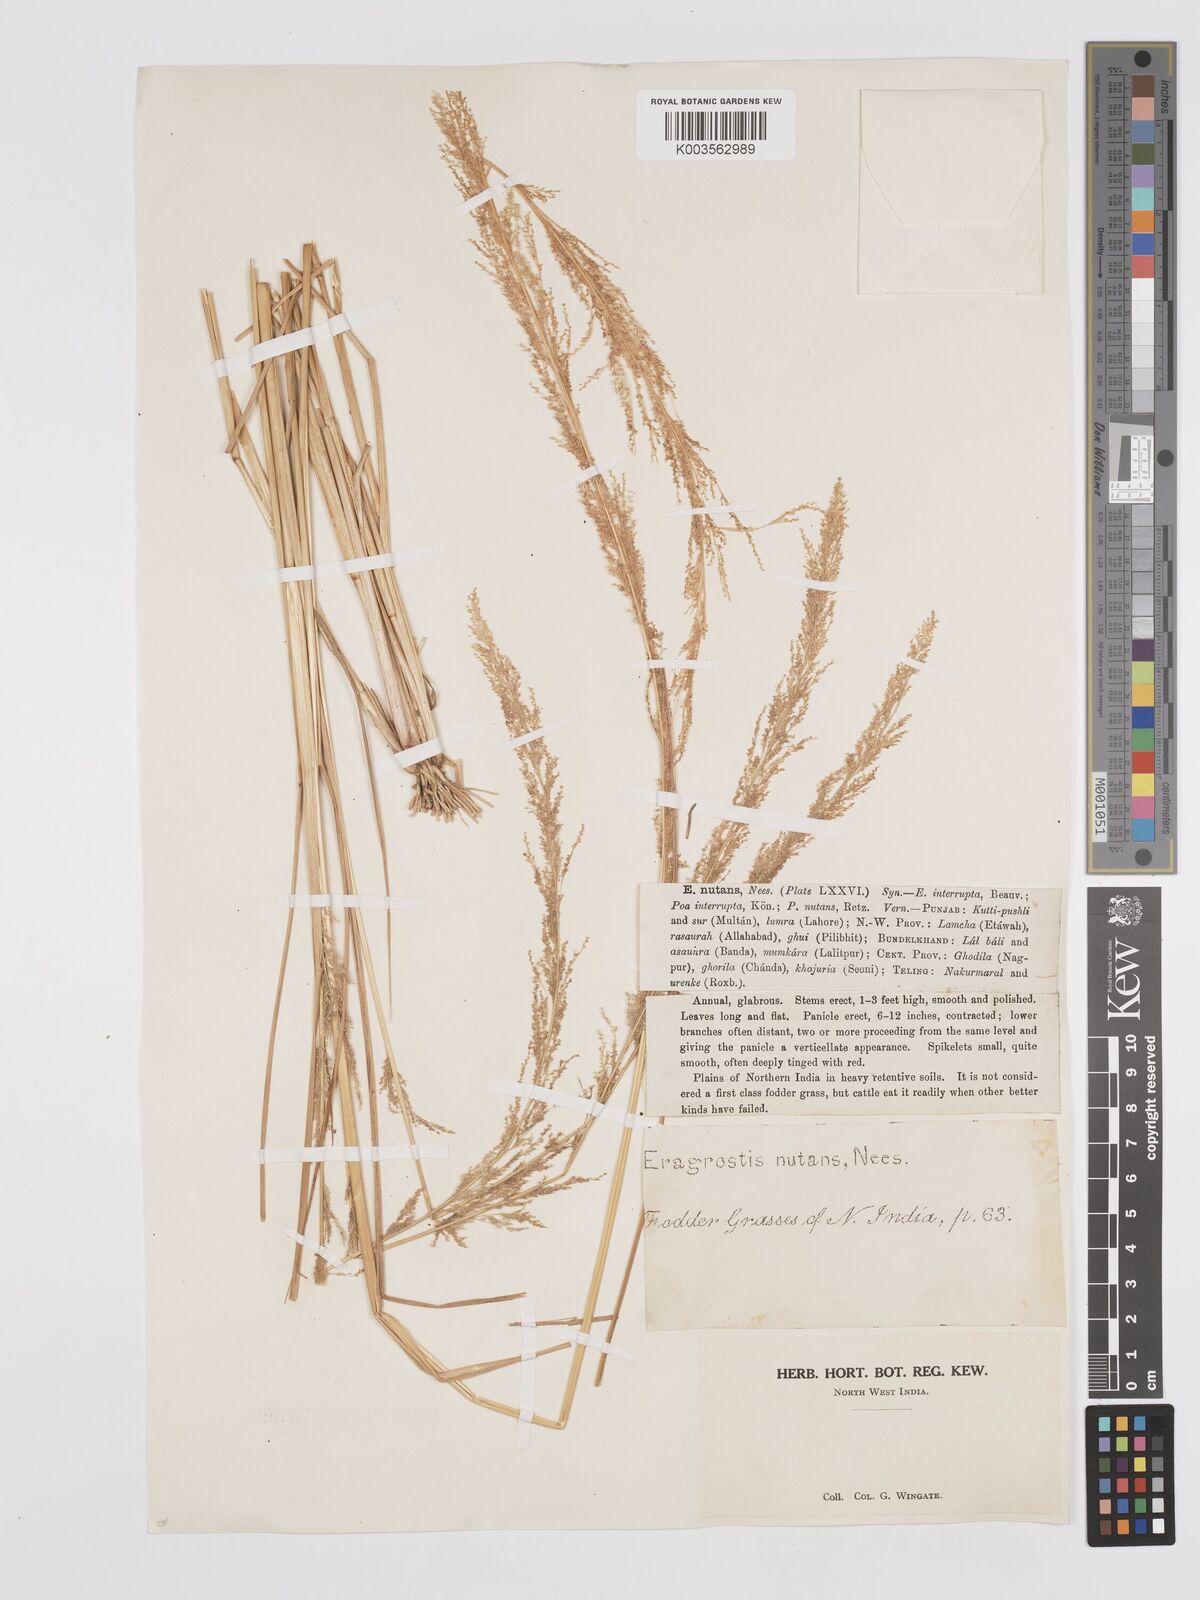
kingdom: Plantae
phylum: Tracheophyta
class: Liliopsida
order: Poales
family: Poaceae
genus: Eragrostis
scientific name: Eragrostis japonica
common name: Pond lovegrass
